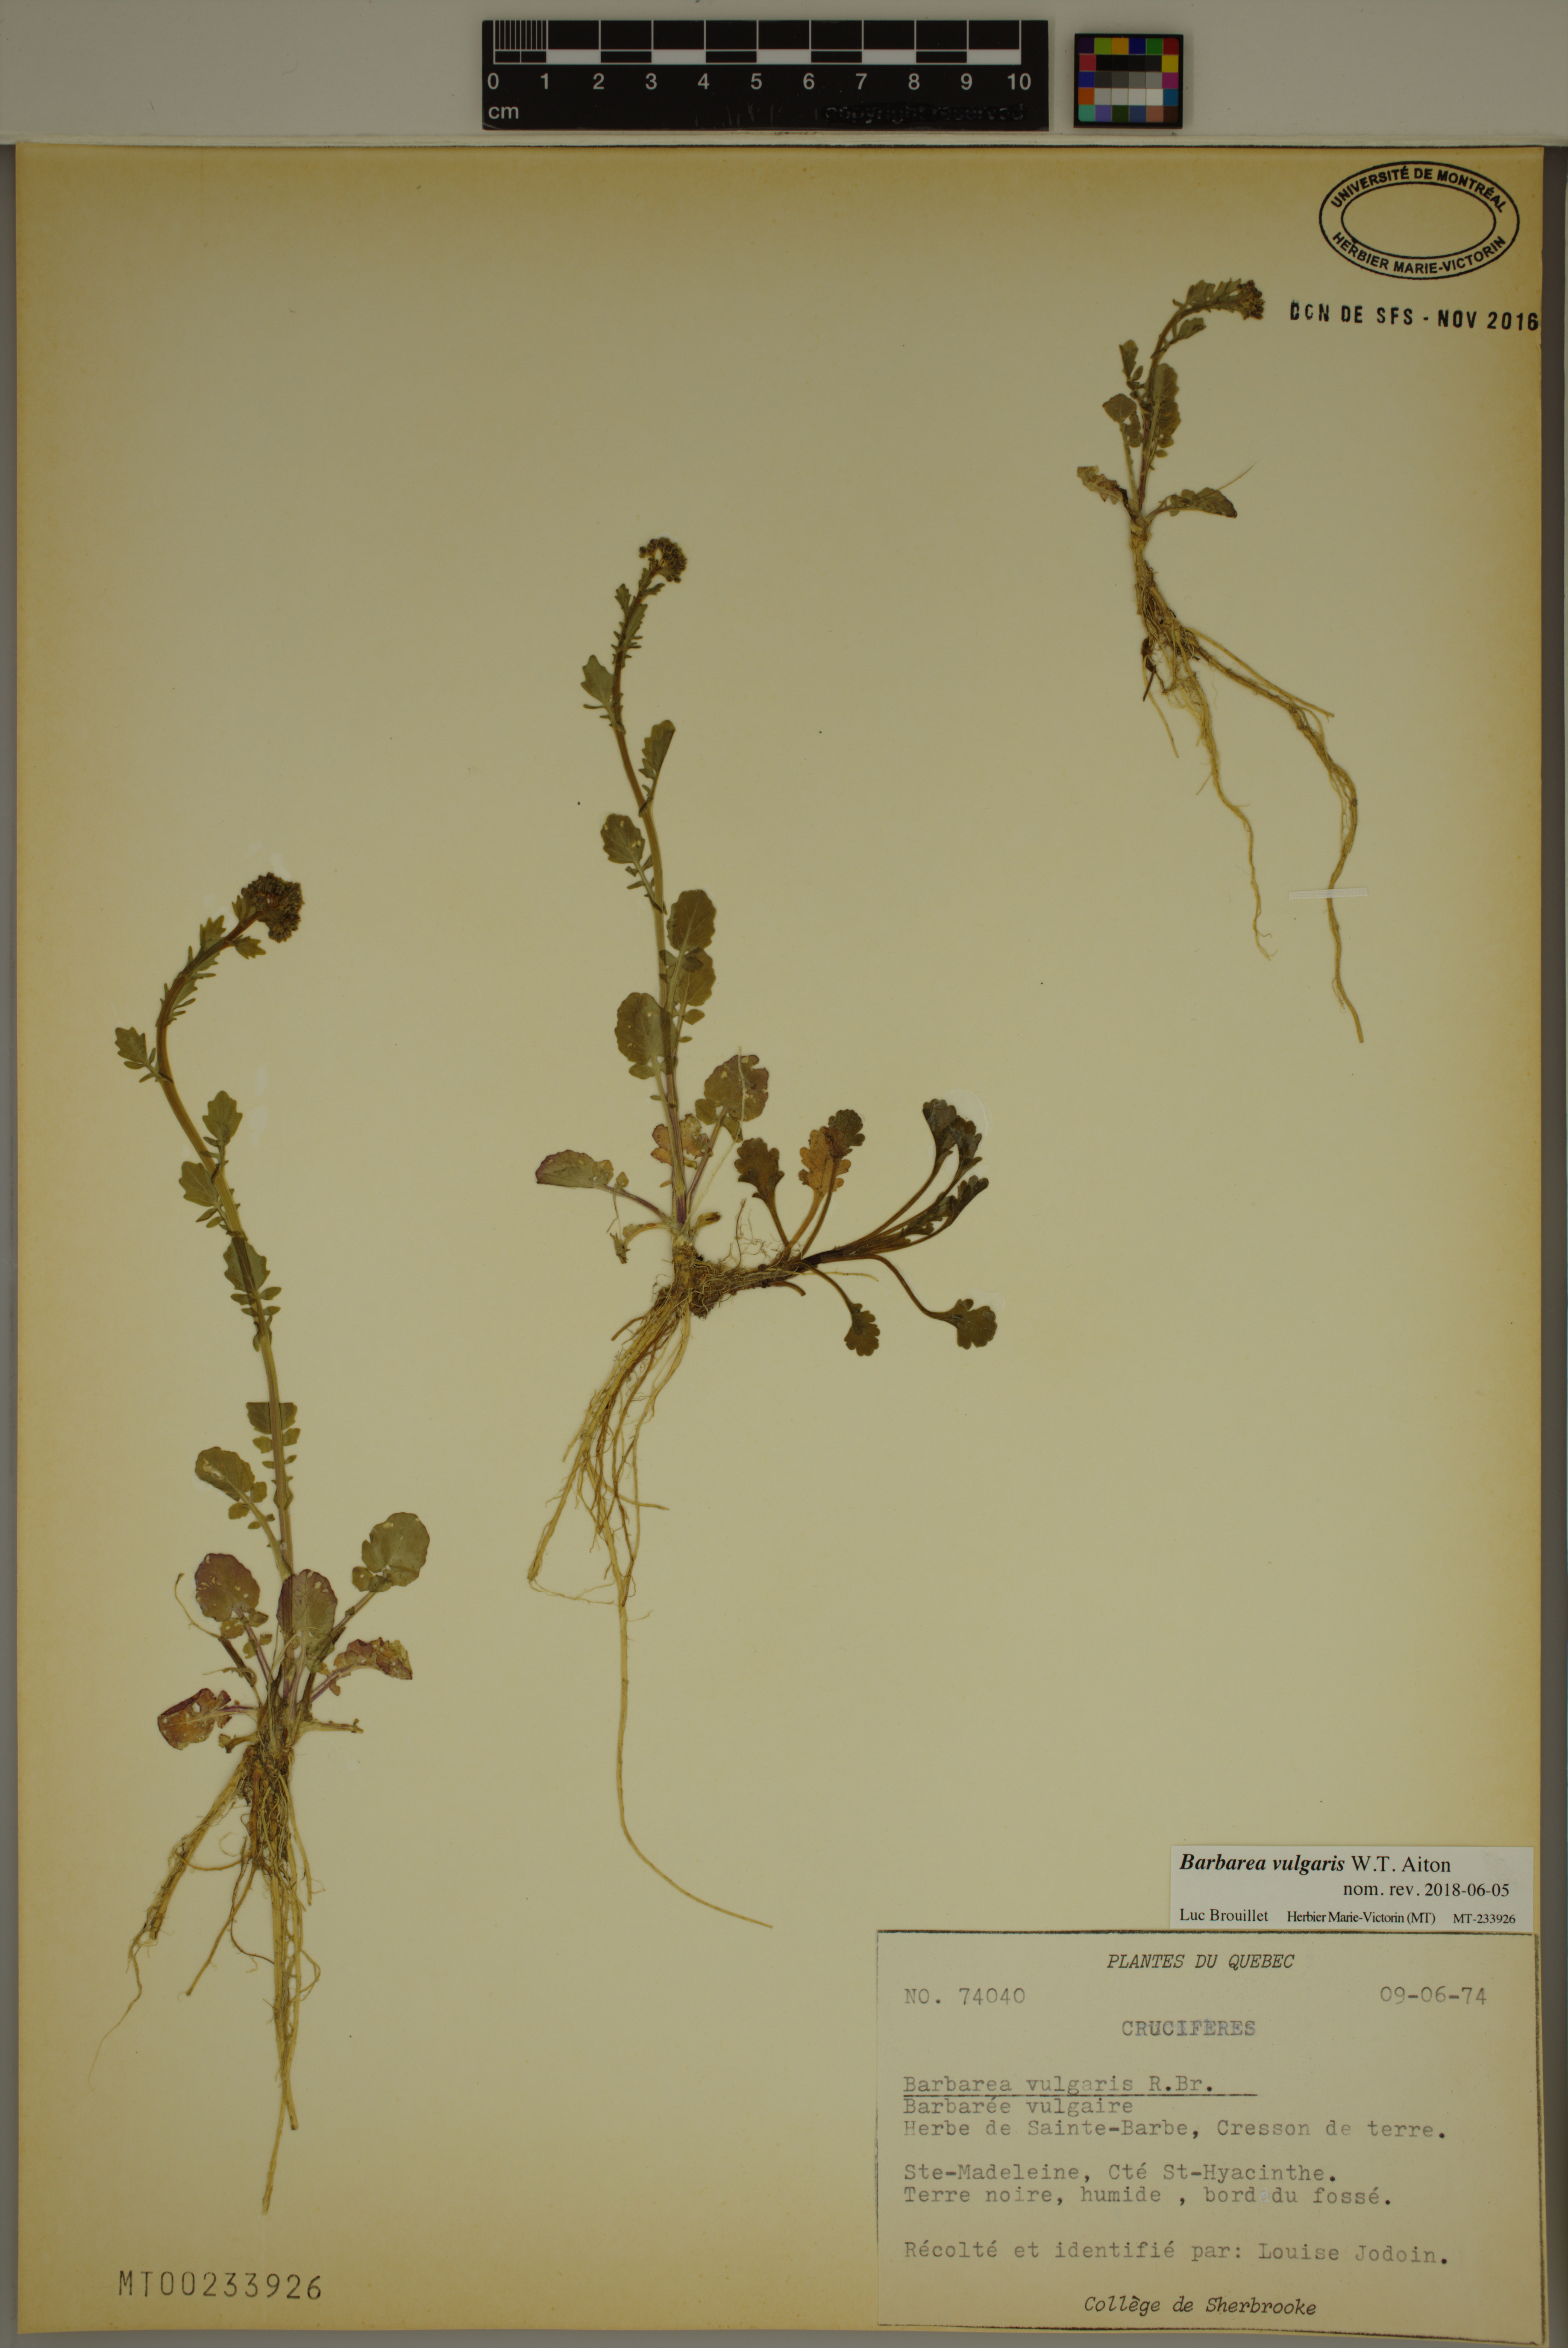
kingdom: Plantae
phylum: Tracheophyta
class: Magnoliopsida
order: Brassicales
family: Brassicaceae
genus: Barbarea
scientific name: Barbarea vulgaris
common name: Cressy-greens
